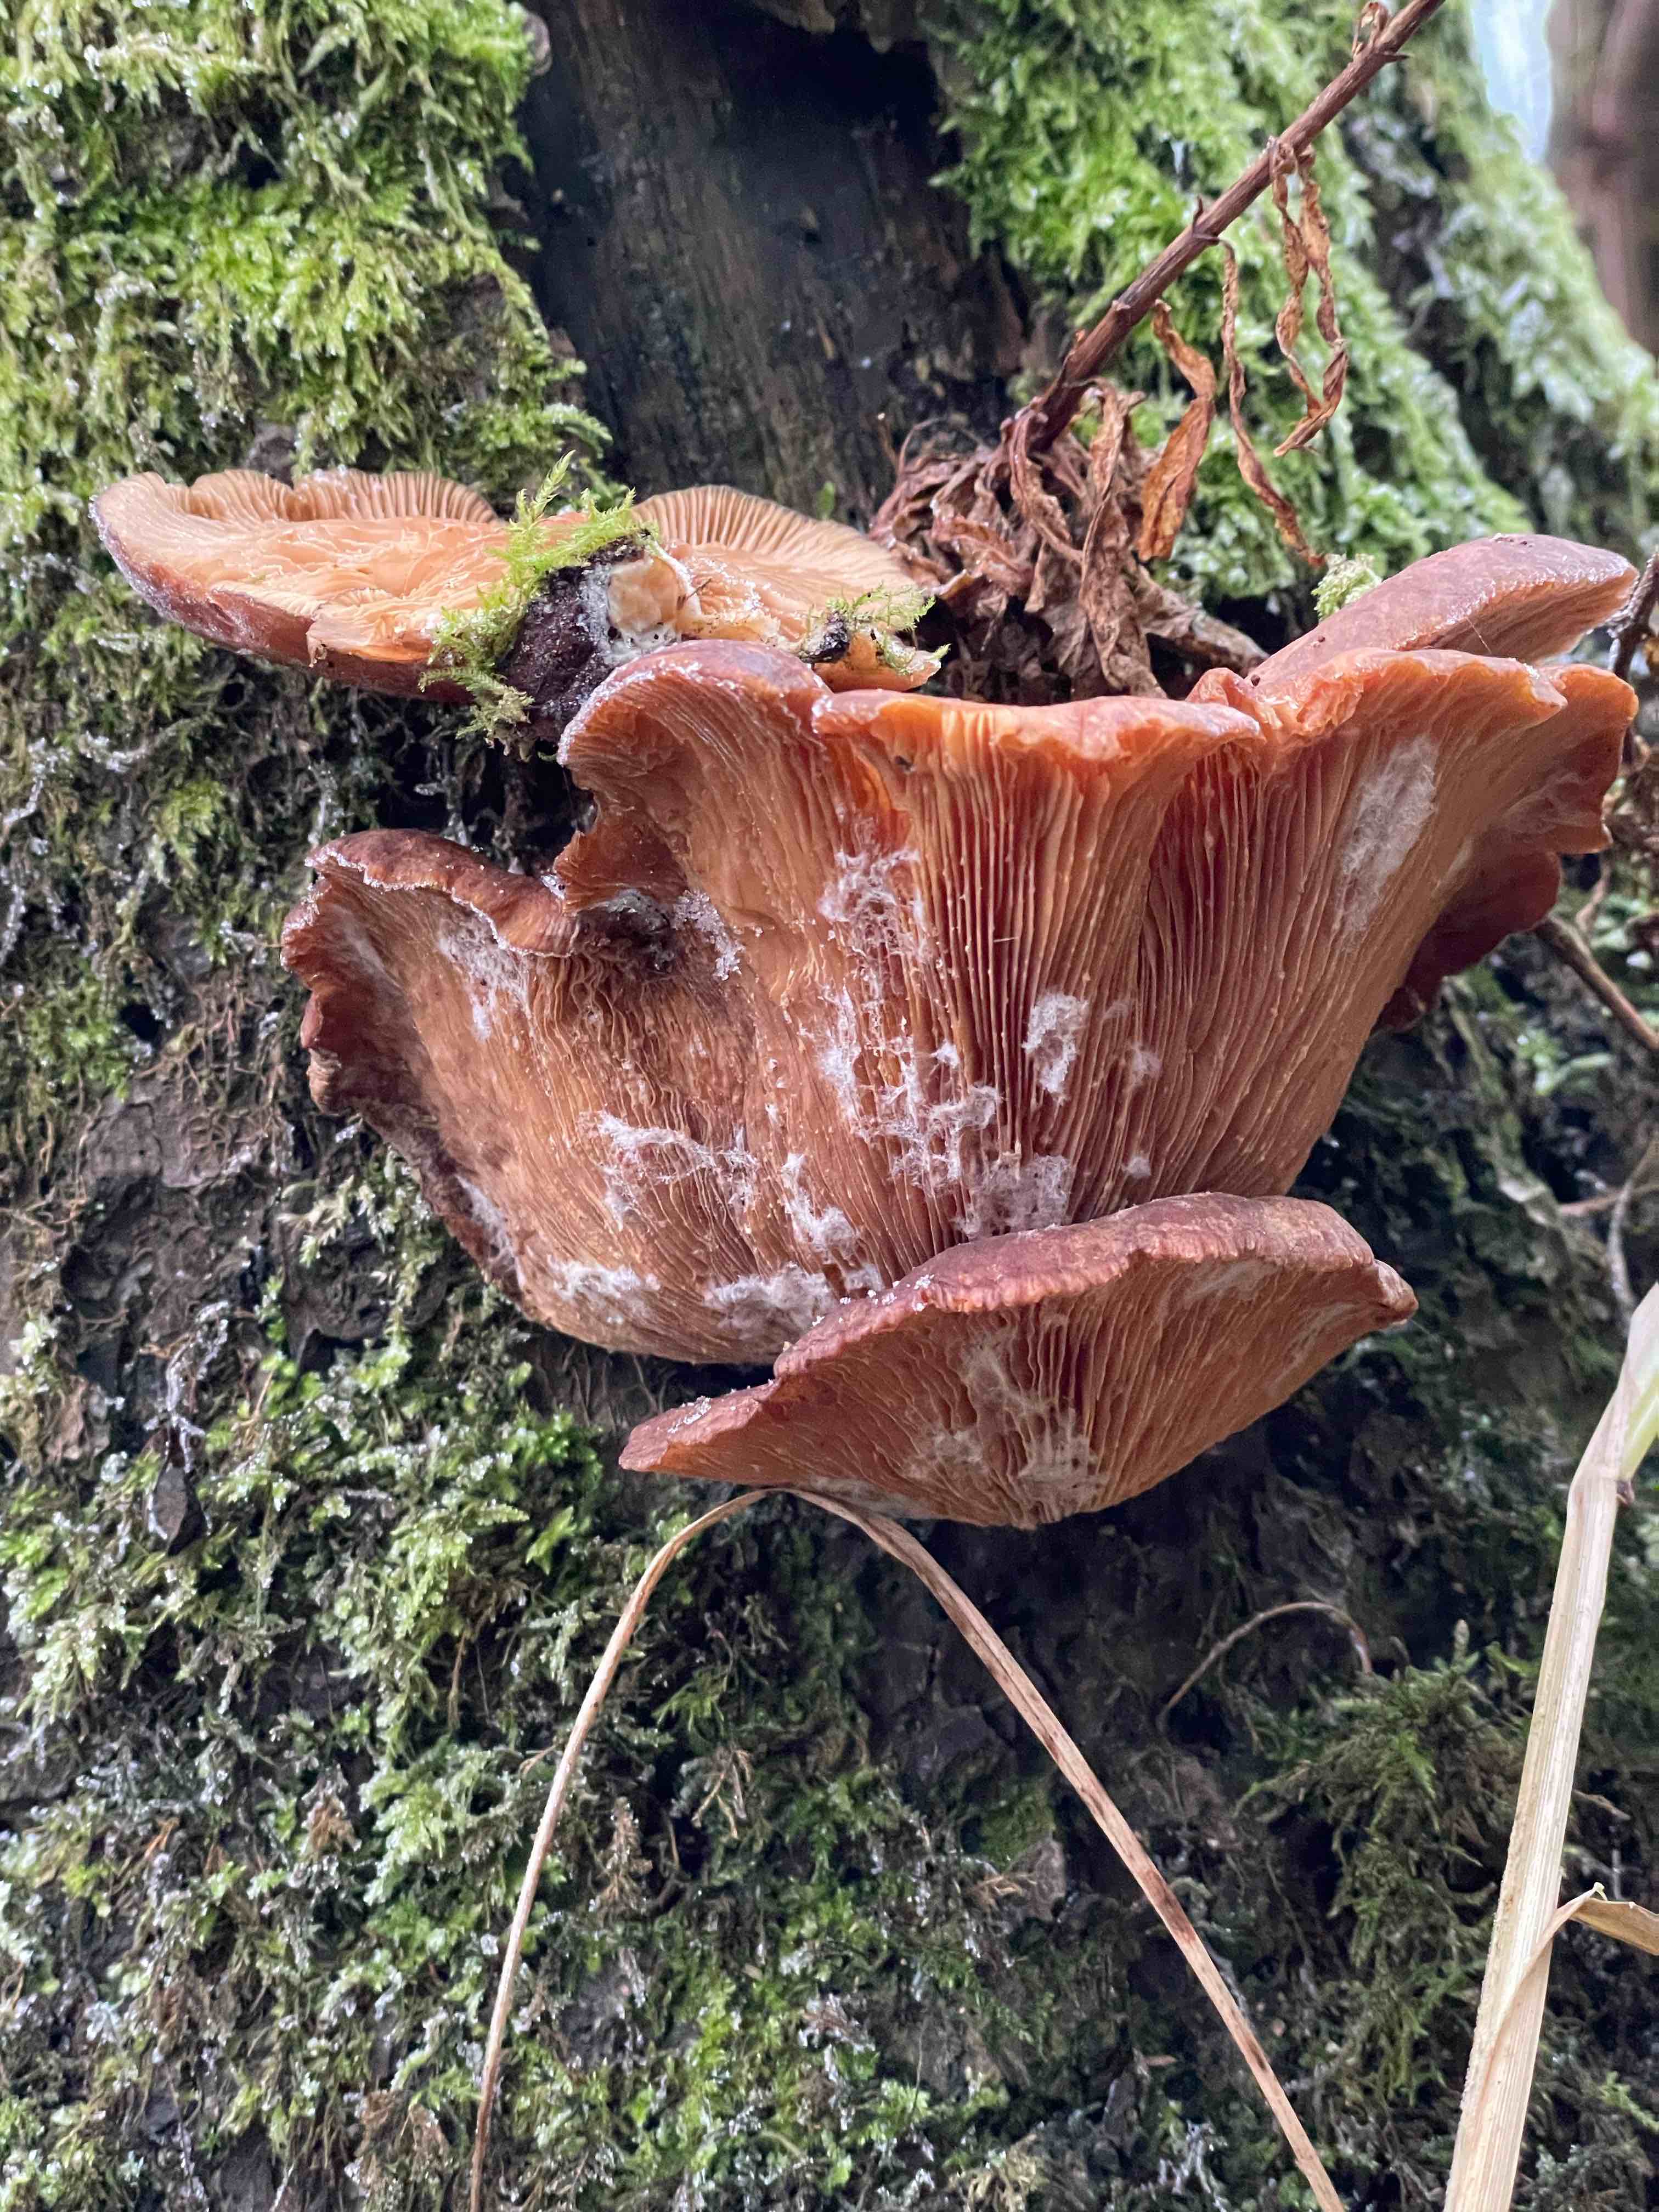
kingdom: Fungi
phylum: Basidiomycota
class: Agaricomycetes
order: Polyporales
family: Panaceae
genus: Panus
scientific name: Panus conchatus
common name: filtstokket læderhat
